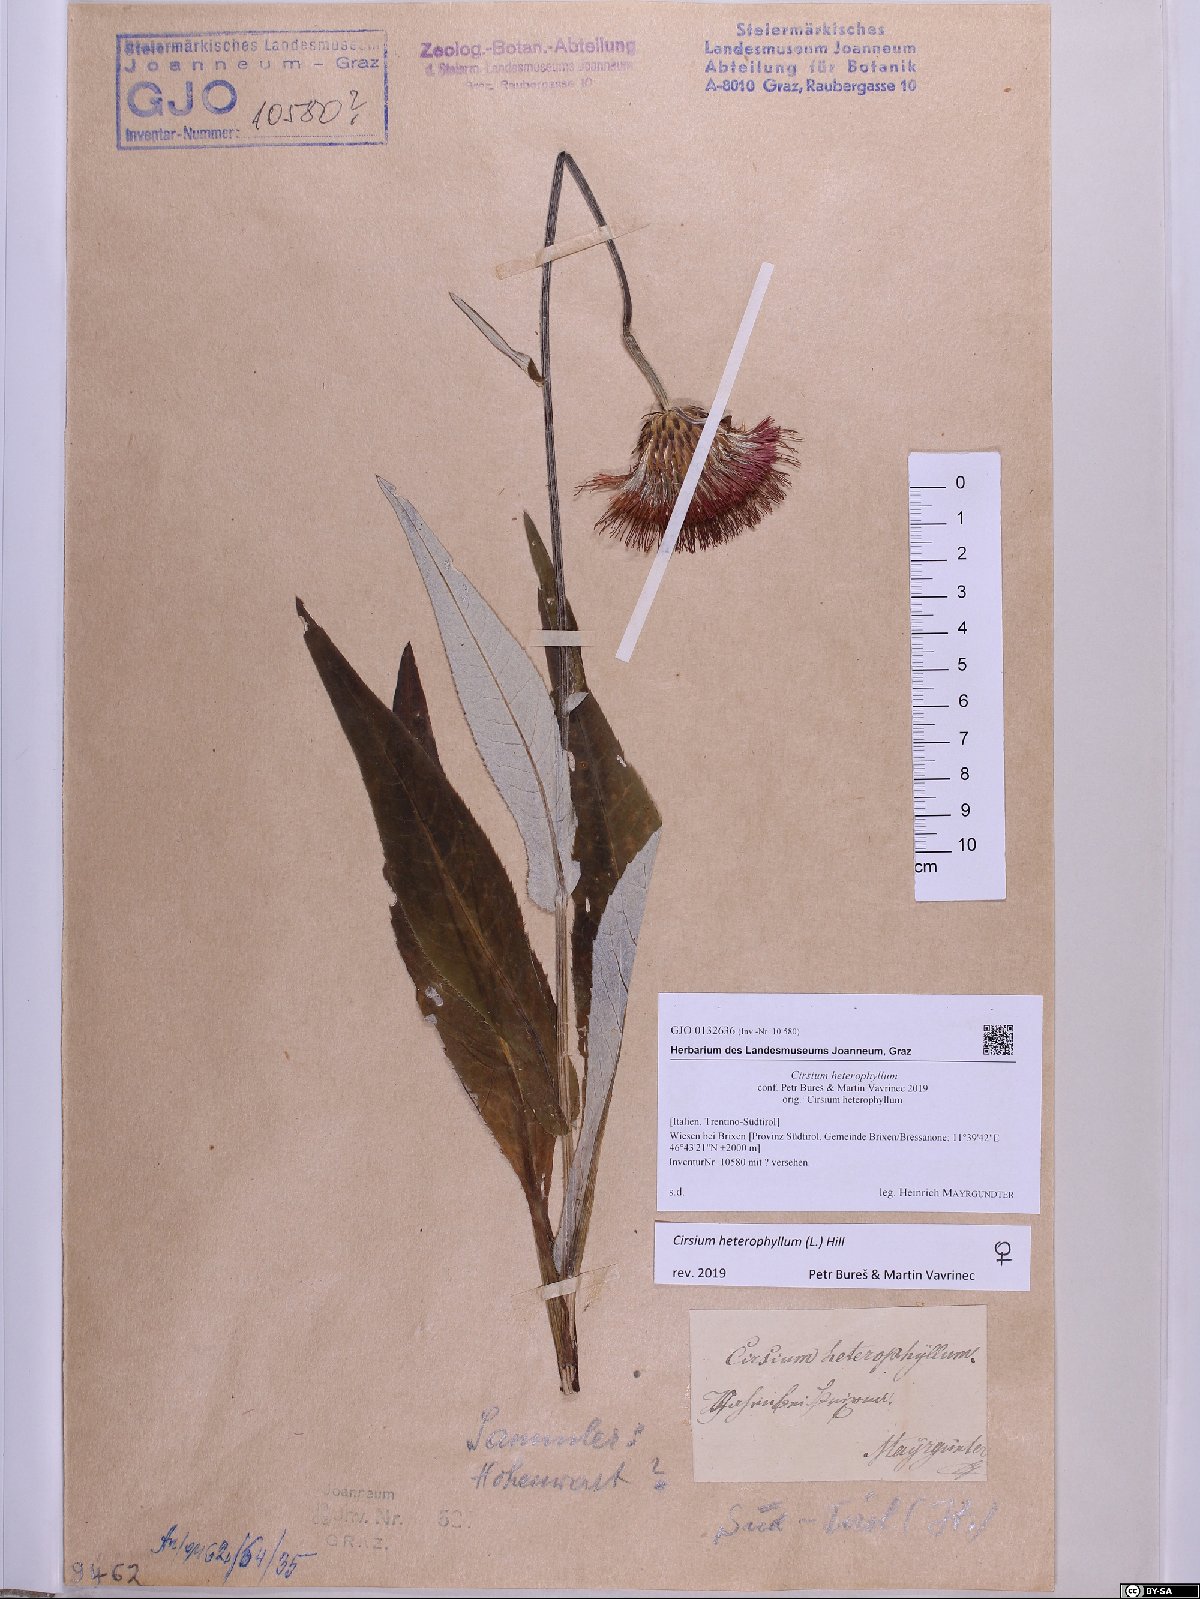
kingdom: Plantae
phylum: Tracheophyta
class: Magnoliopsida
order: Asterales
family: Asteraceae
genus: Cirsium
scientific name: Cirsium heterophyllum
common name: Melancholy thistle
